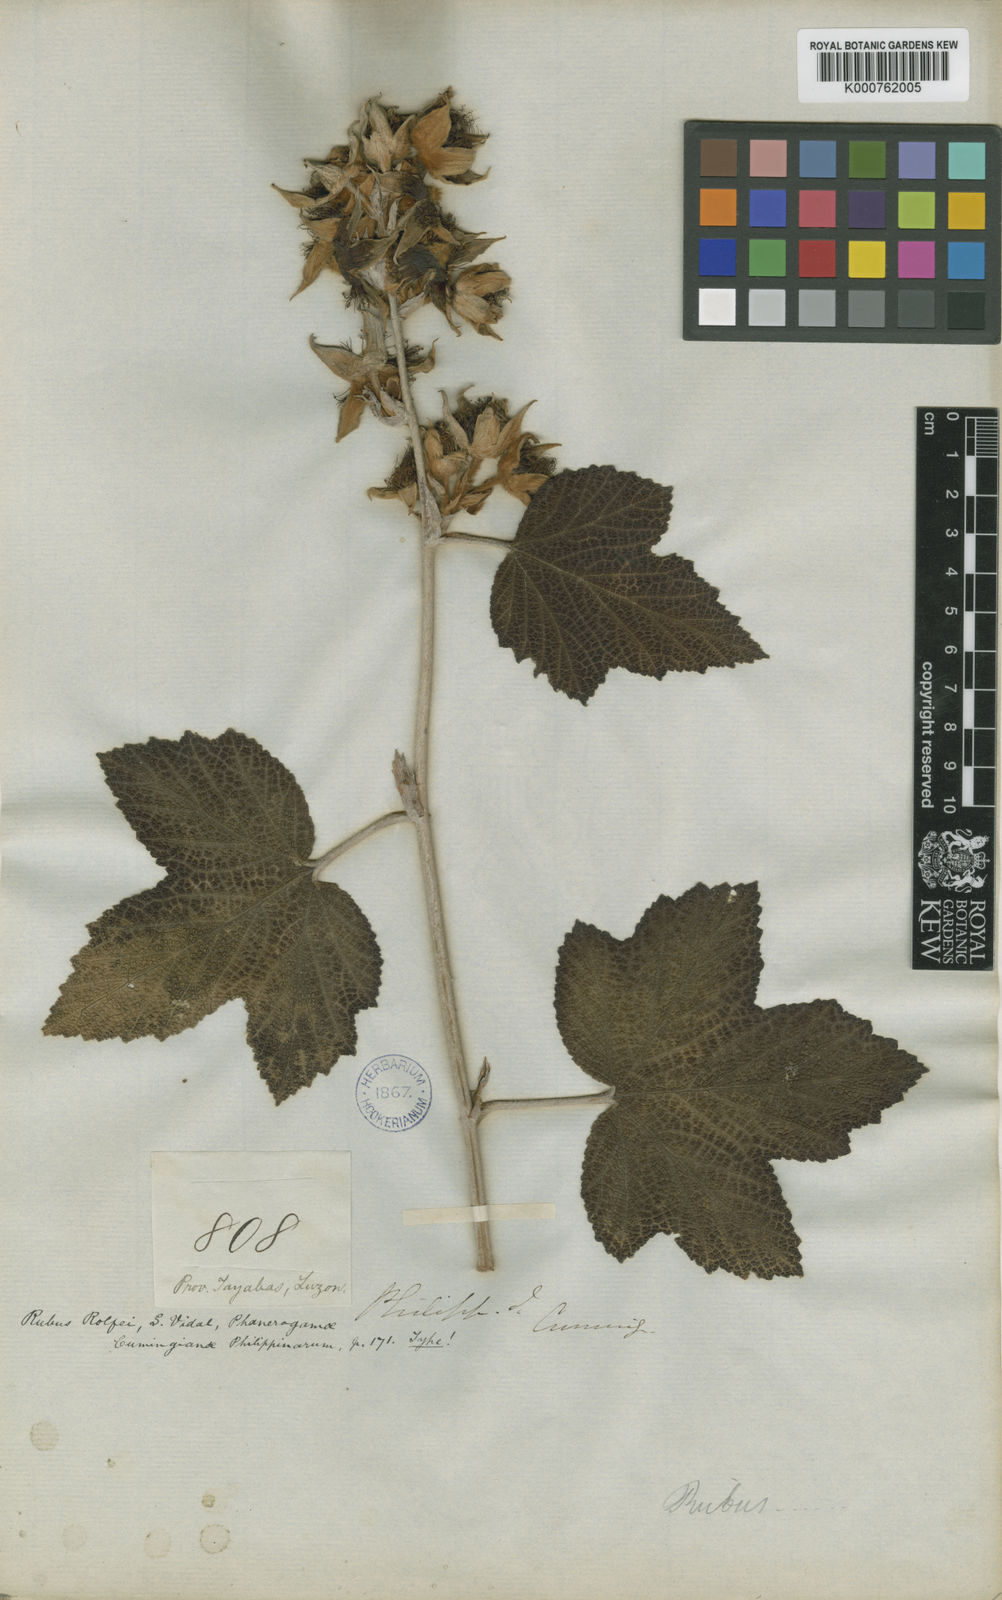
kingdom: Plantae
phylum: Tracheophyta
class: Magnoliopsida
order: Rosales
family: Rosaceae
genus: Rubus
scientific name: Rubus rolfei
